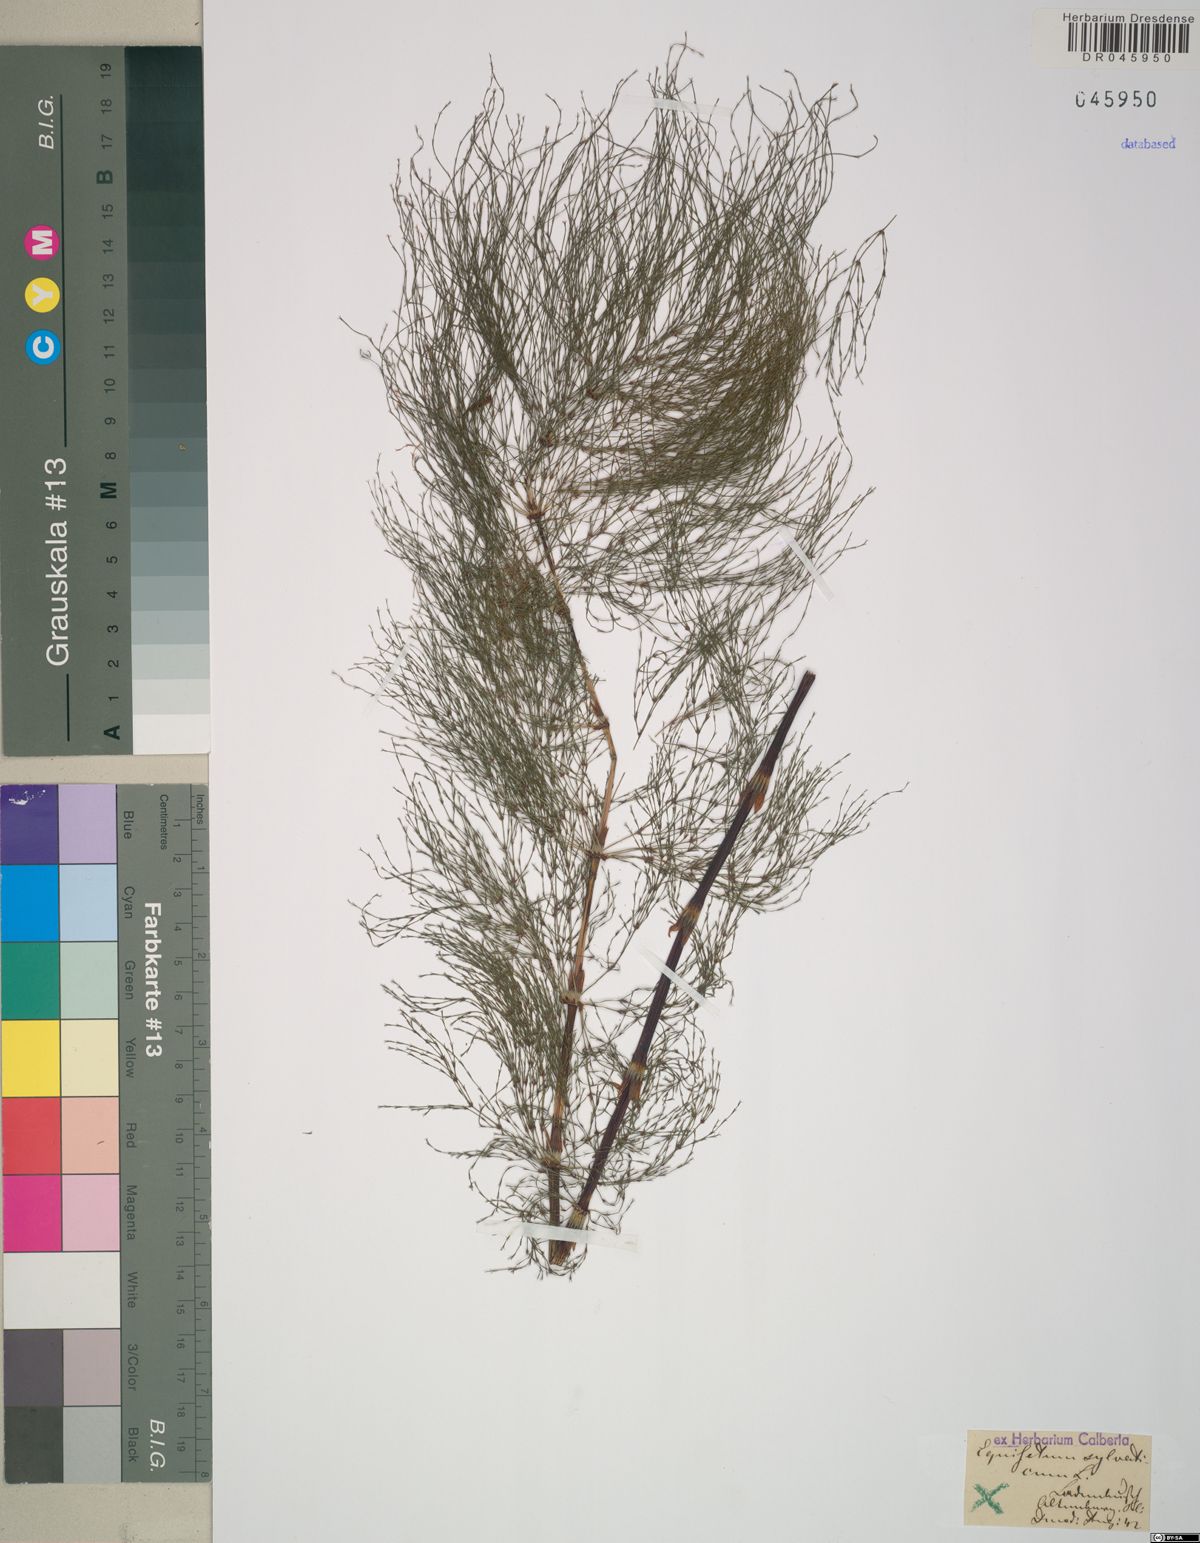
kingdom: Plantae
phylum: Tracheophyta
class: Polypodiopsida
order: Equisetales
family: Equisetaceae
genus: Equisetum
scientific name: Equisetum sylvaticum
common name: Wood horsetail
